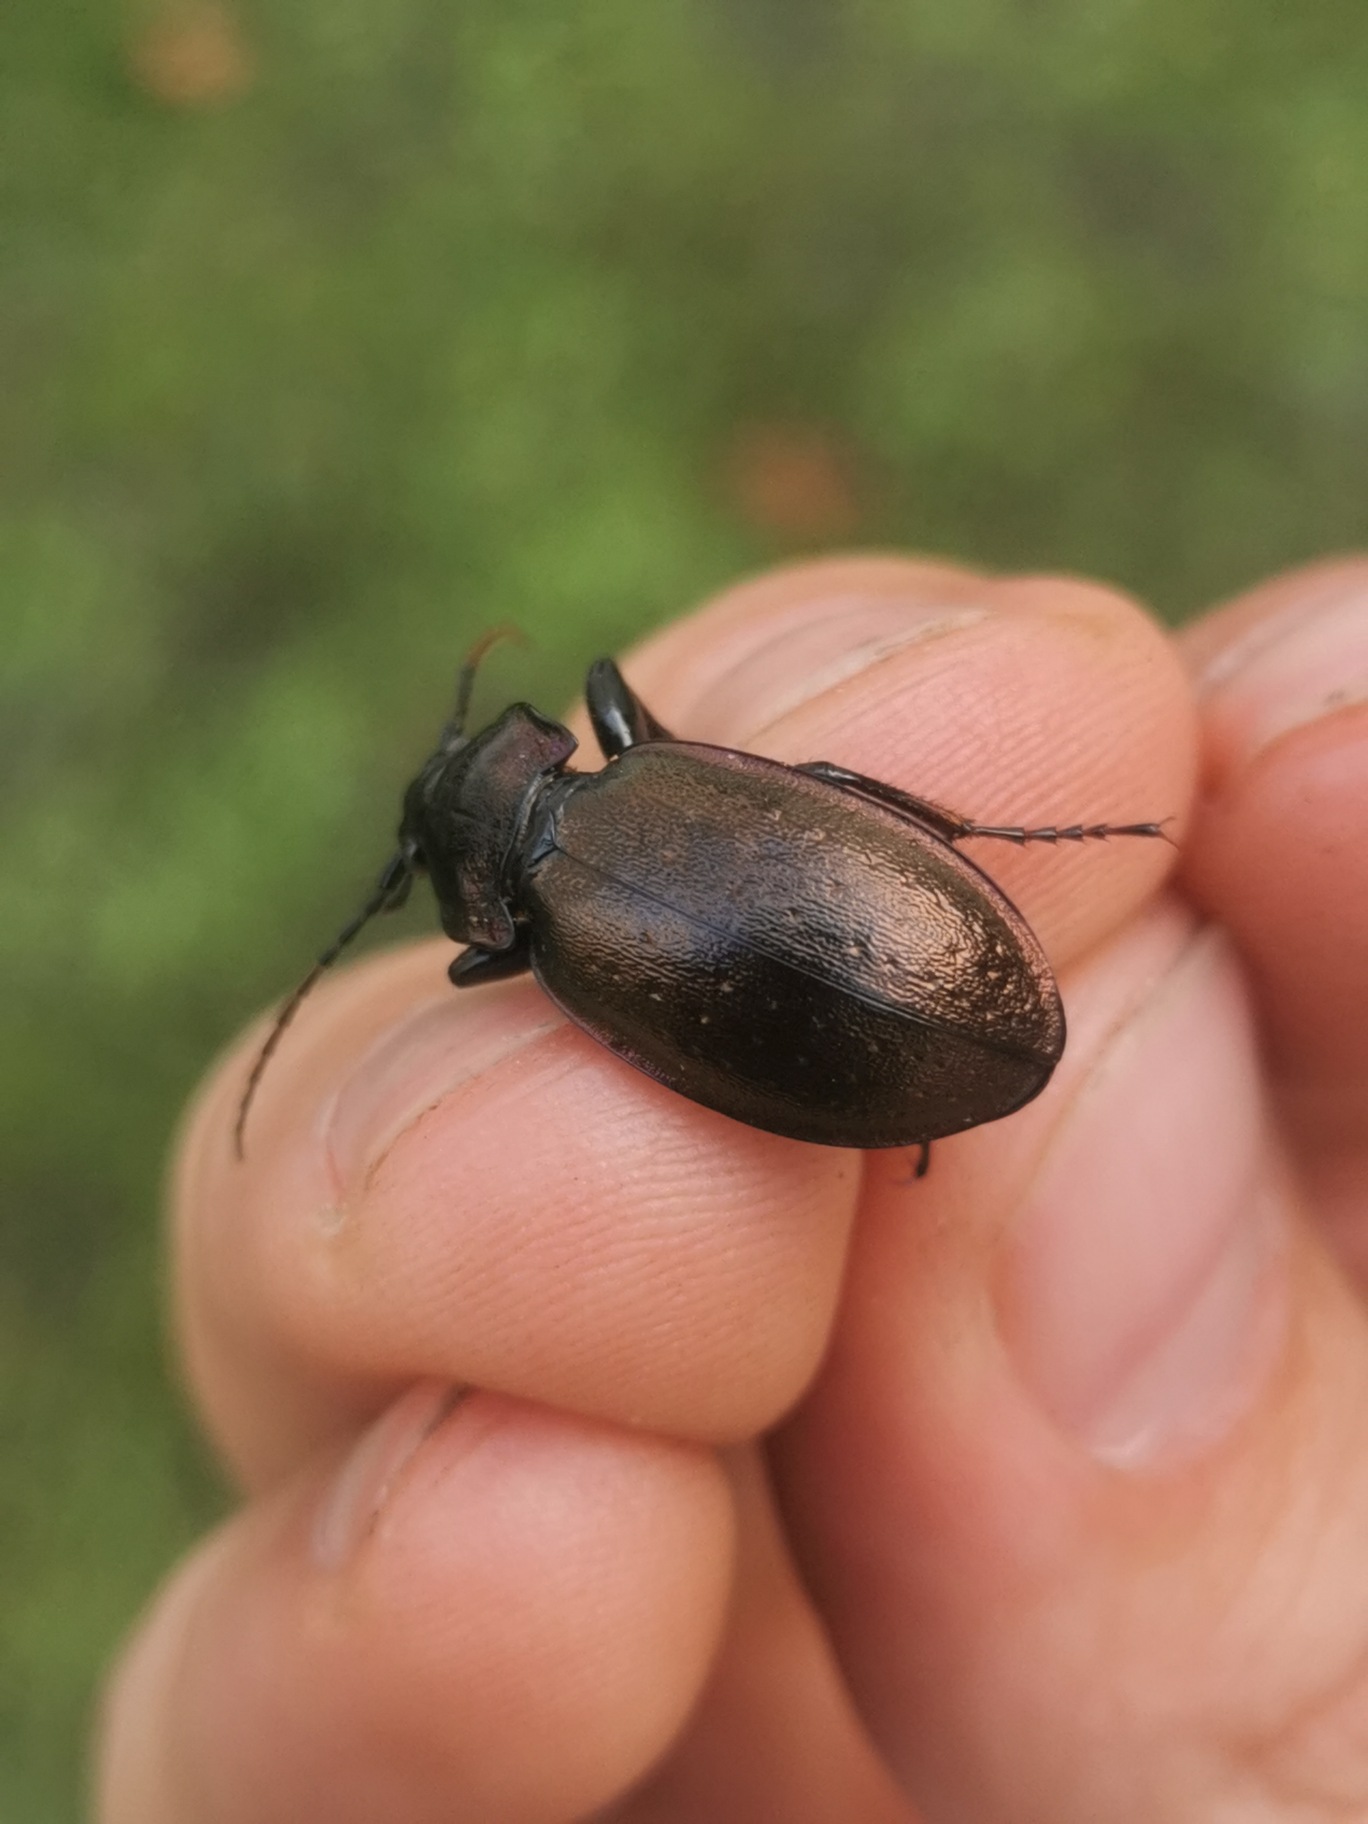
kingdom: Animalia
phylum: Arthropoda
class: Insecta
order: Coleoptera
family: Carabidae
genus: Carabus
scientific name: Carabus nemoralis
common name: Kratløber
